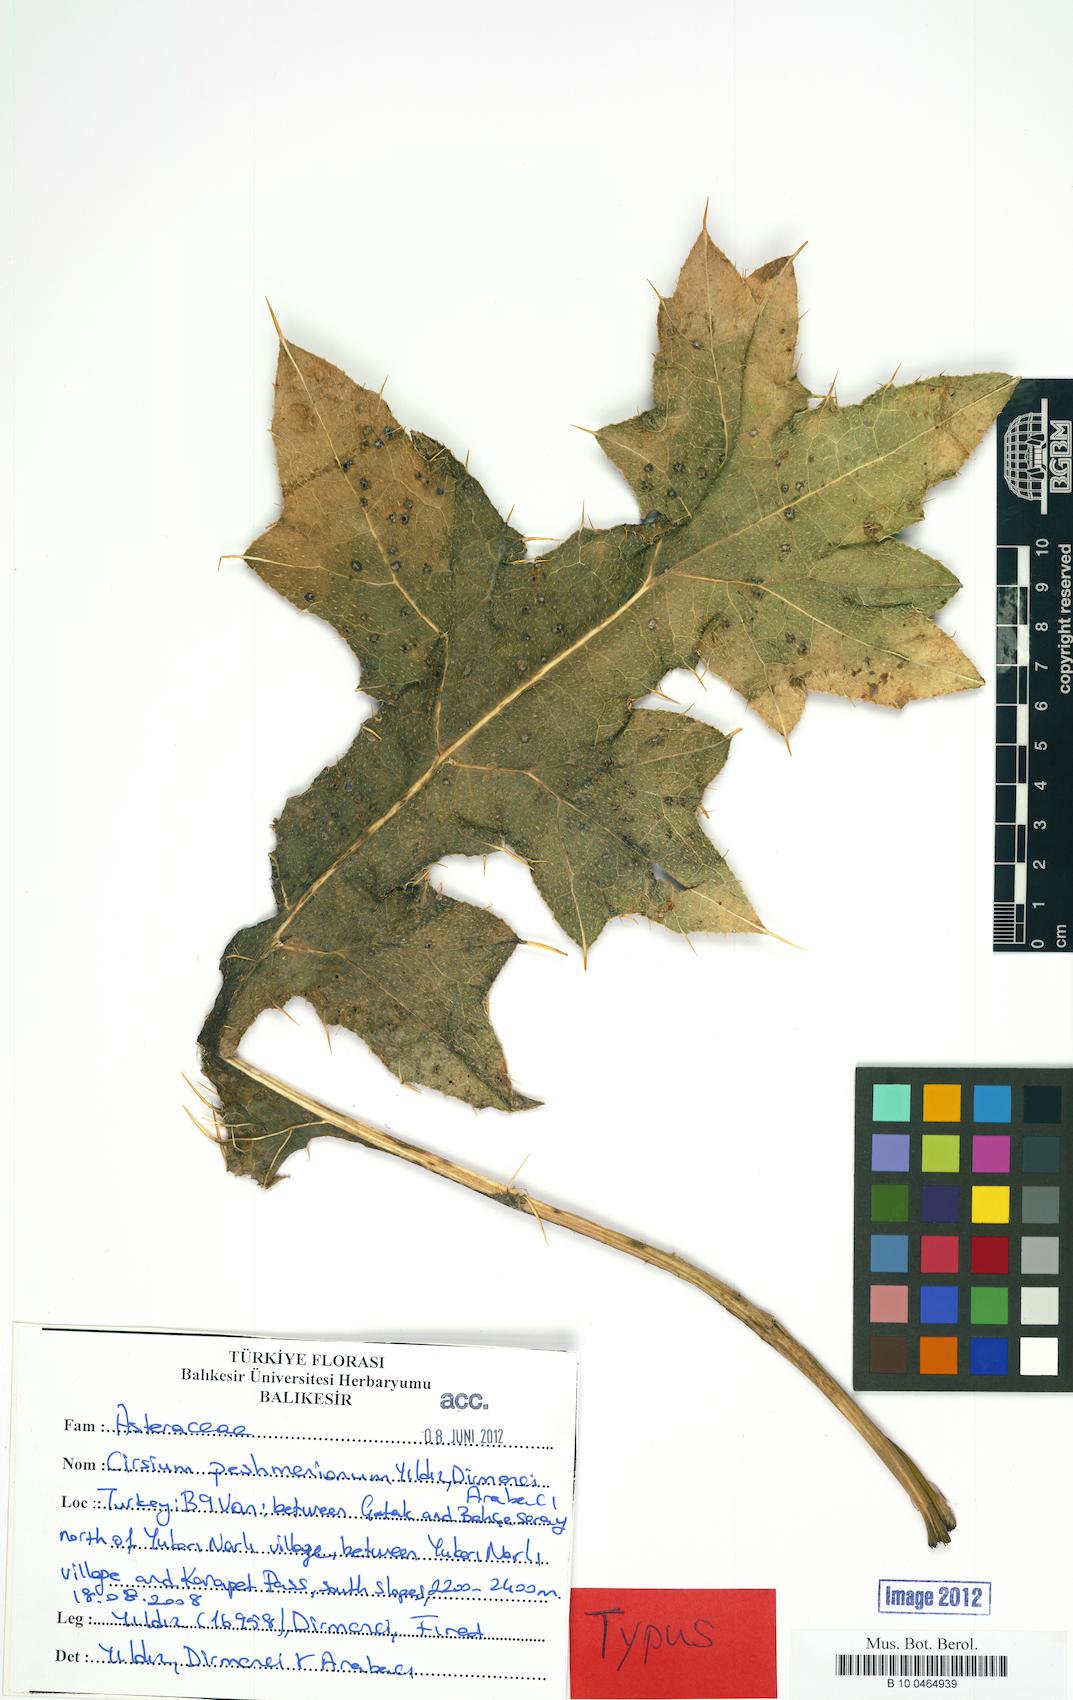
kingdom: Plantae
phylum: Tracheophyta
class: Magnoliopsida
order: Asterales
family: Asteraceae
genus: Lophiolepis
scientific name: Lophiolepis peshmeniana
